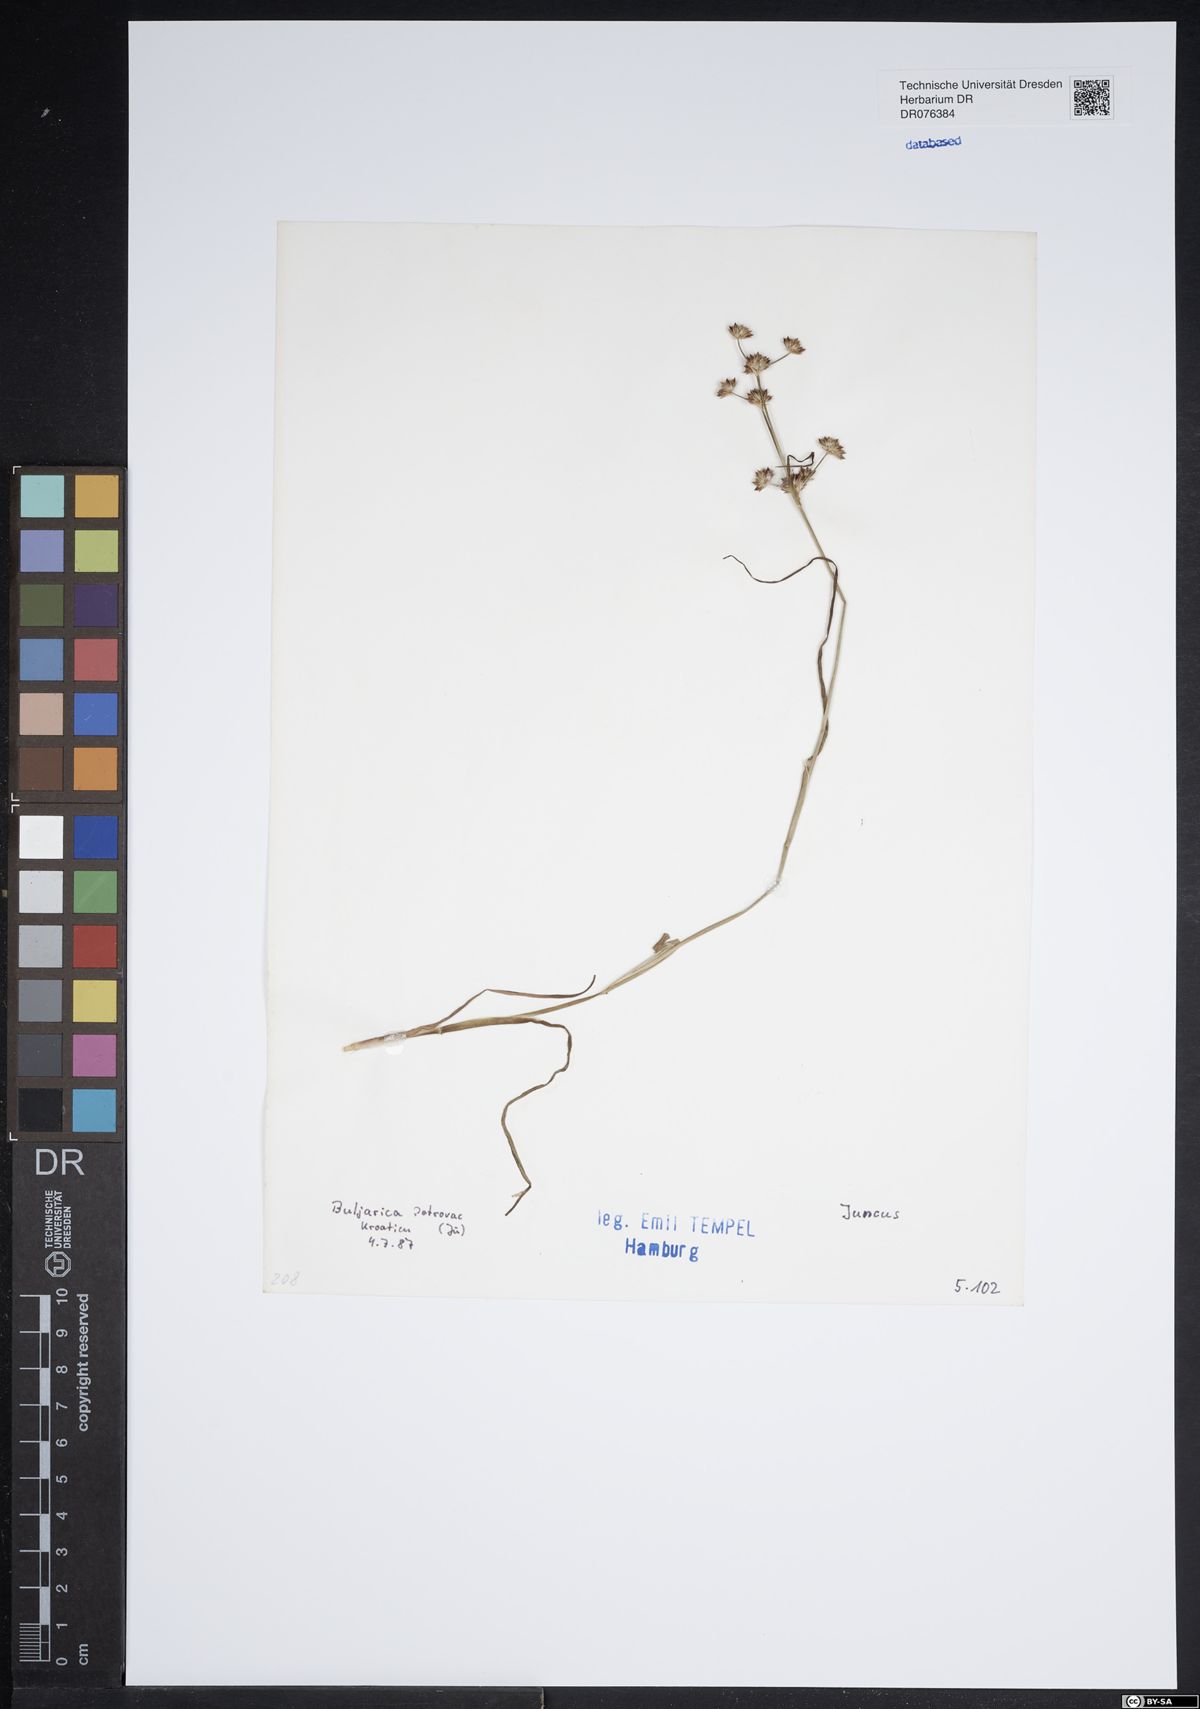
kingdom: Plantae
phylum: Tracheophyta
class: Liliopsida
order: Poales
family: Juncaceae
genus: Juncus
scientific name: Juncus
